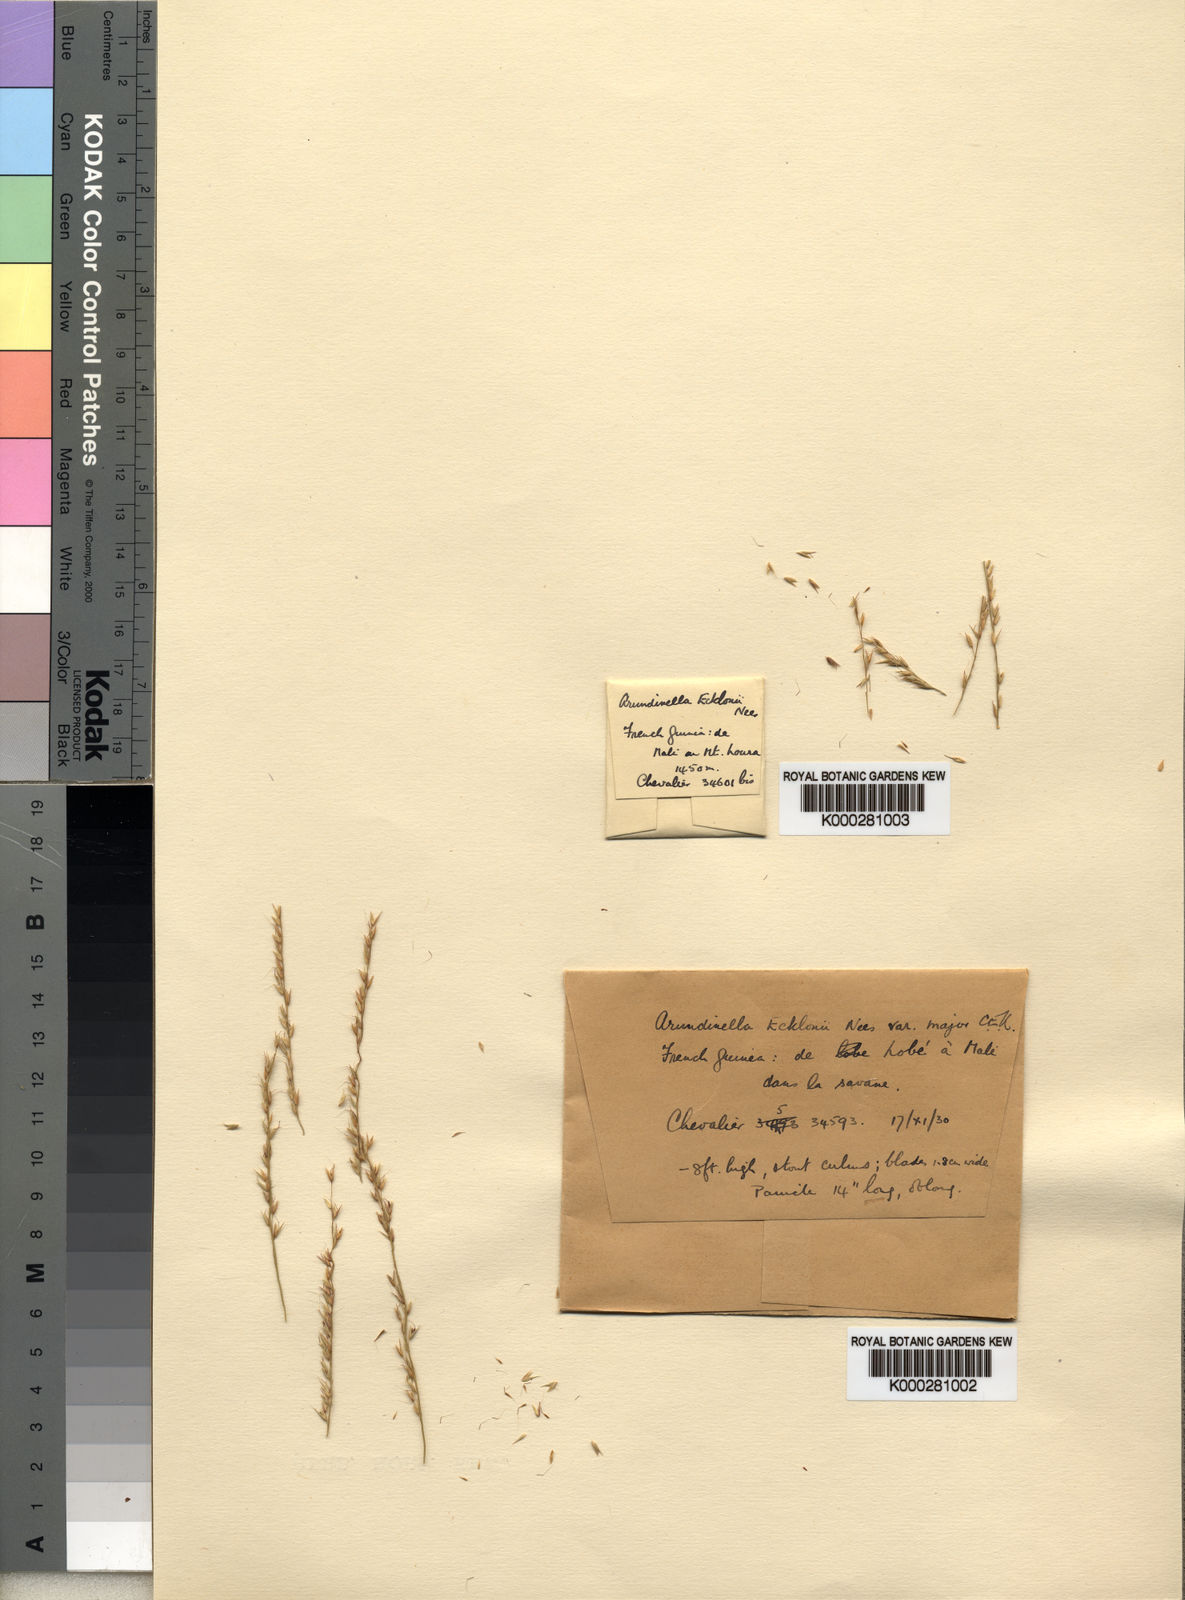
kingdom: Plantae
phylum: Tracheophyta
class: Liliopsida
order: Poales
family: Poaceae
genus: Arundinella
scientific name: Arundinella nepalensis
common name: Reed grass
